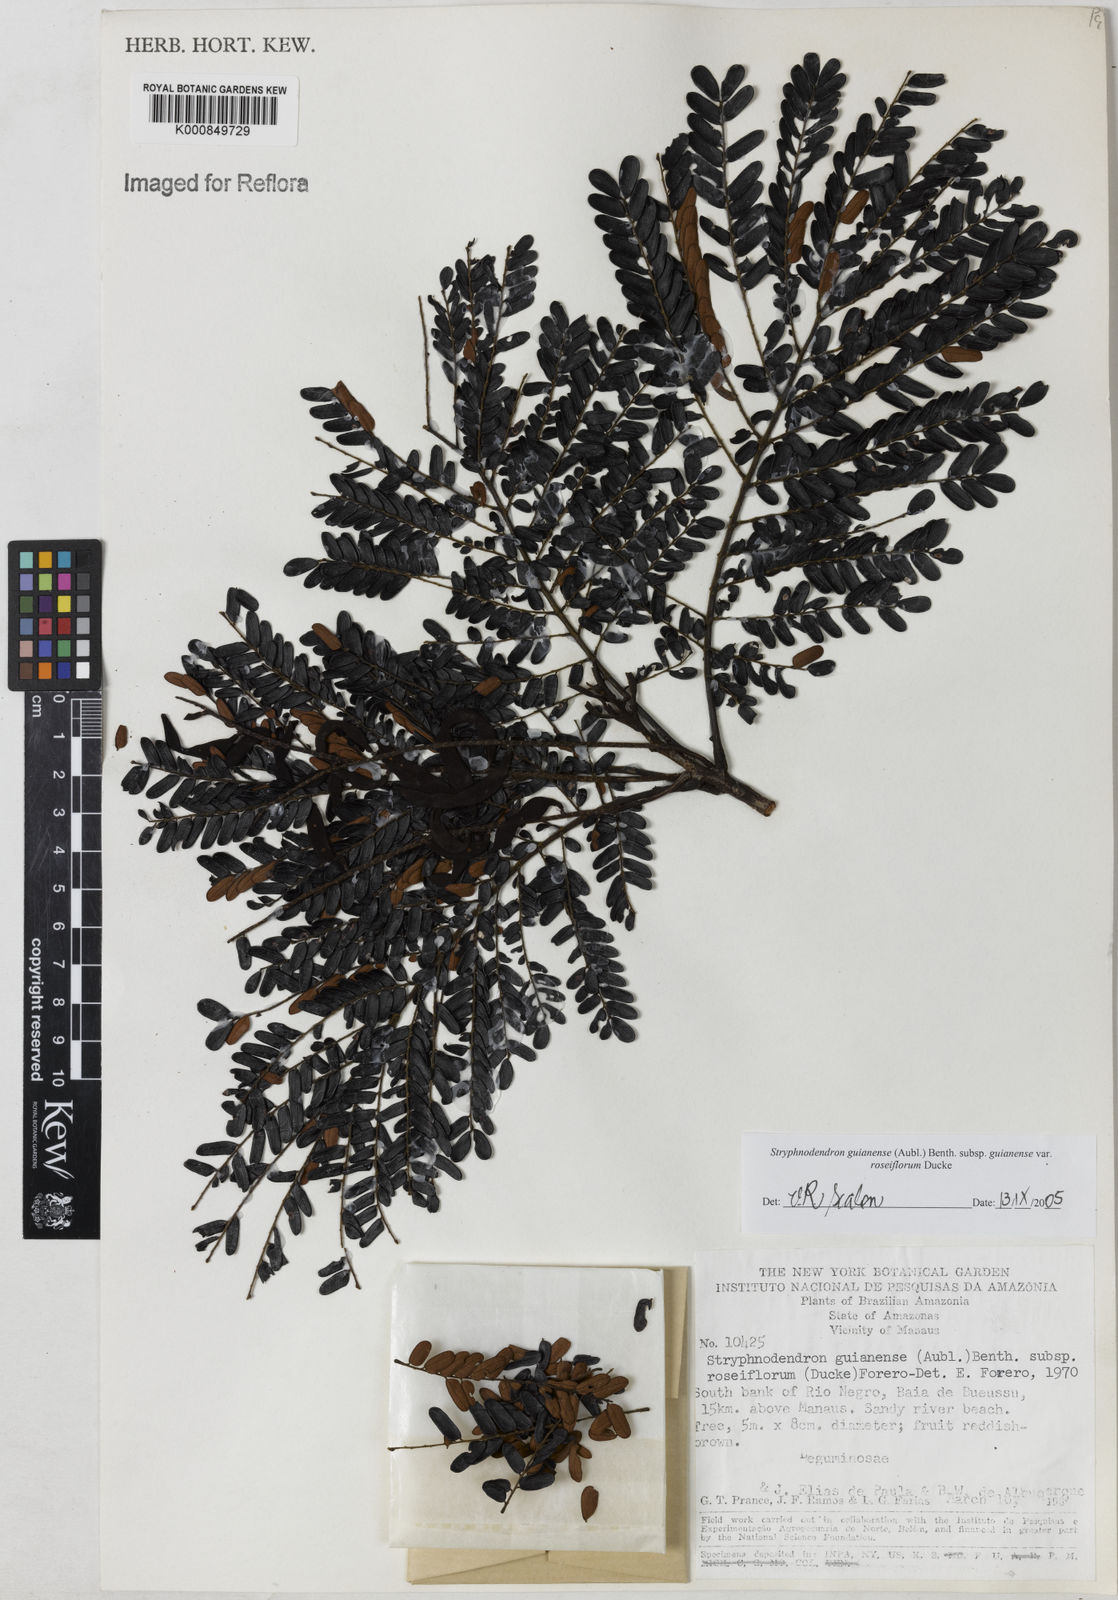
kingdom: Plantae
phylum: Tracheophyta
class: Magnoliopsida
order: Fabales
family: Fabaceae
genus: Stryphnodendron
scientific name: Stryphnodendron guianense
